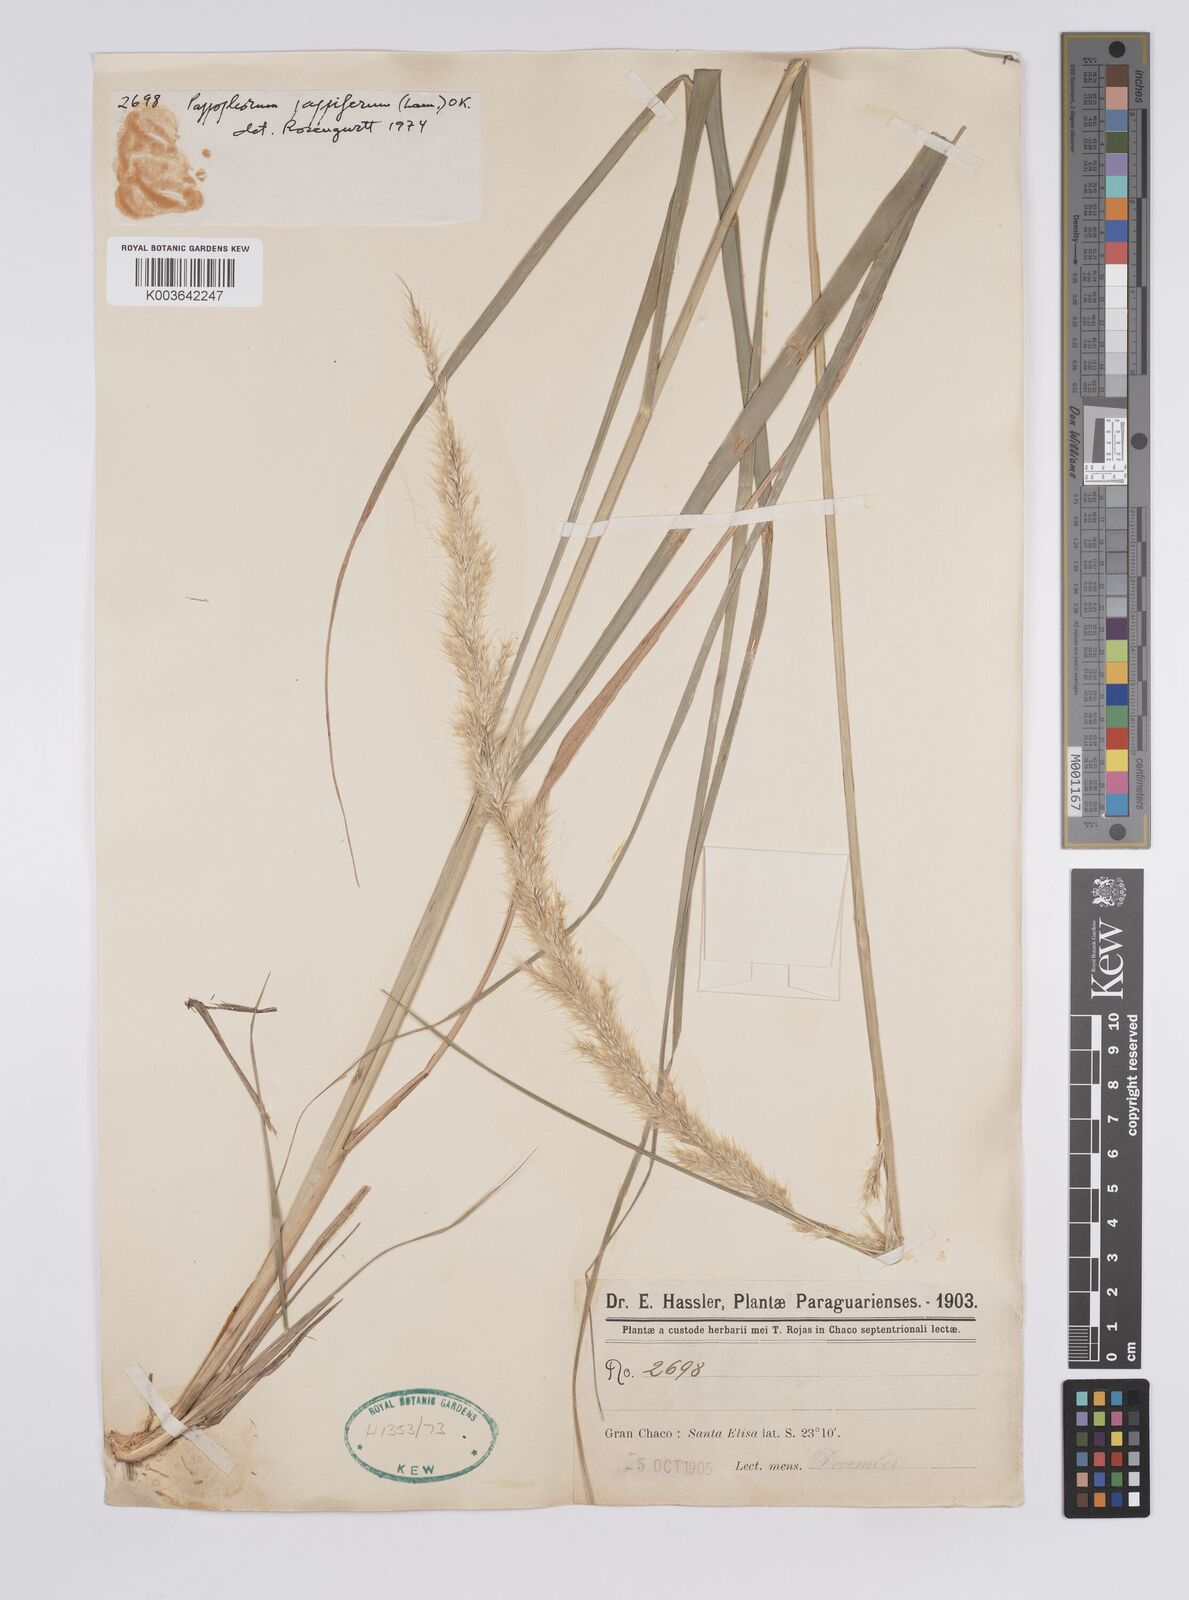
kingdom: Plantae
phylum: Tracheophyta
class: Liliopsida
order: Poales
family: Poaceae
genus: Pappophorum
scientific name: Pappophorum pappiferum
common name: Crabgrass
